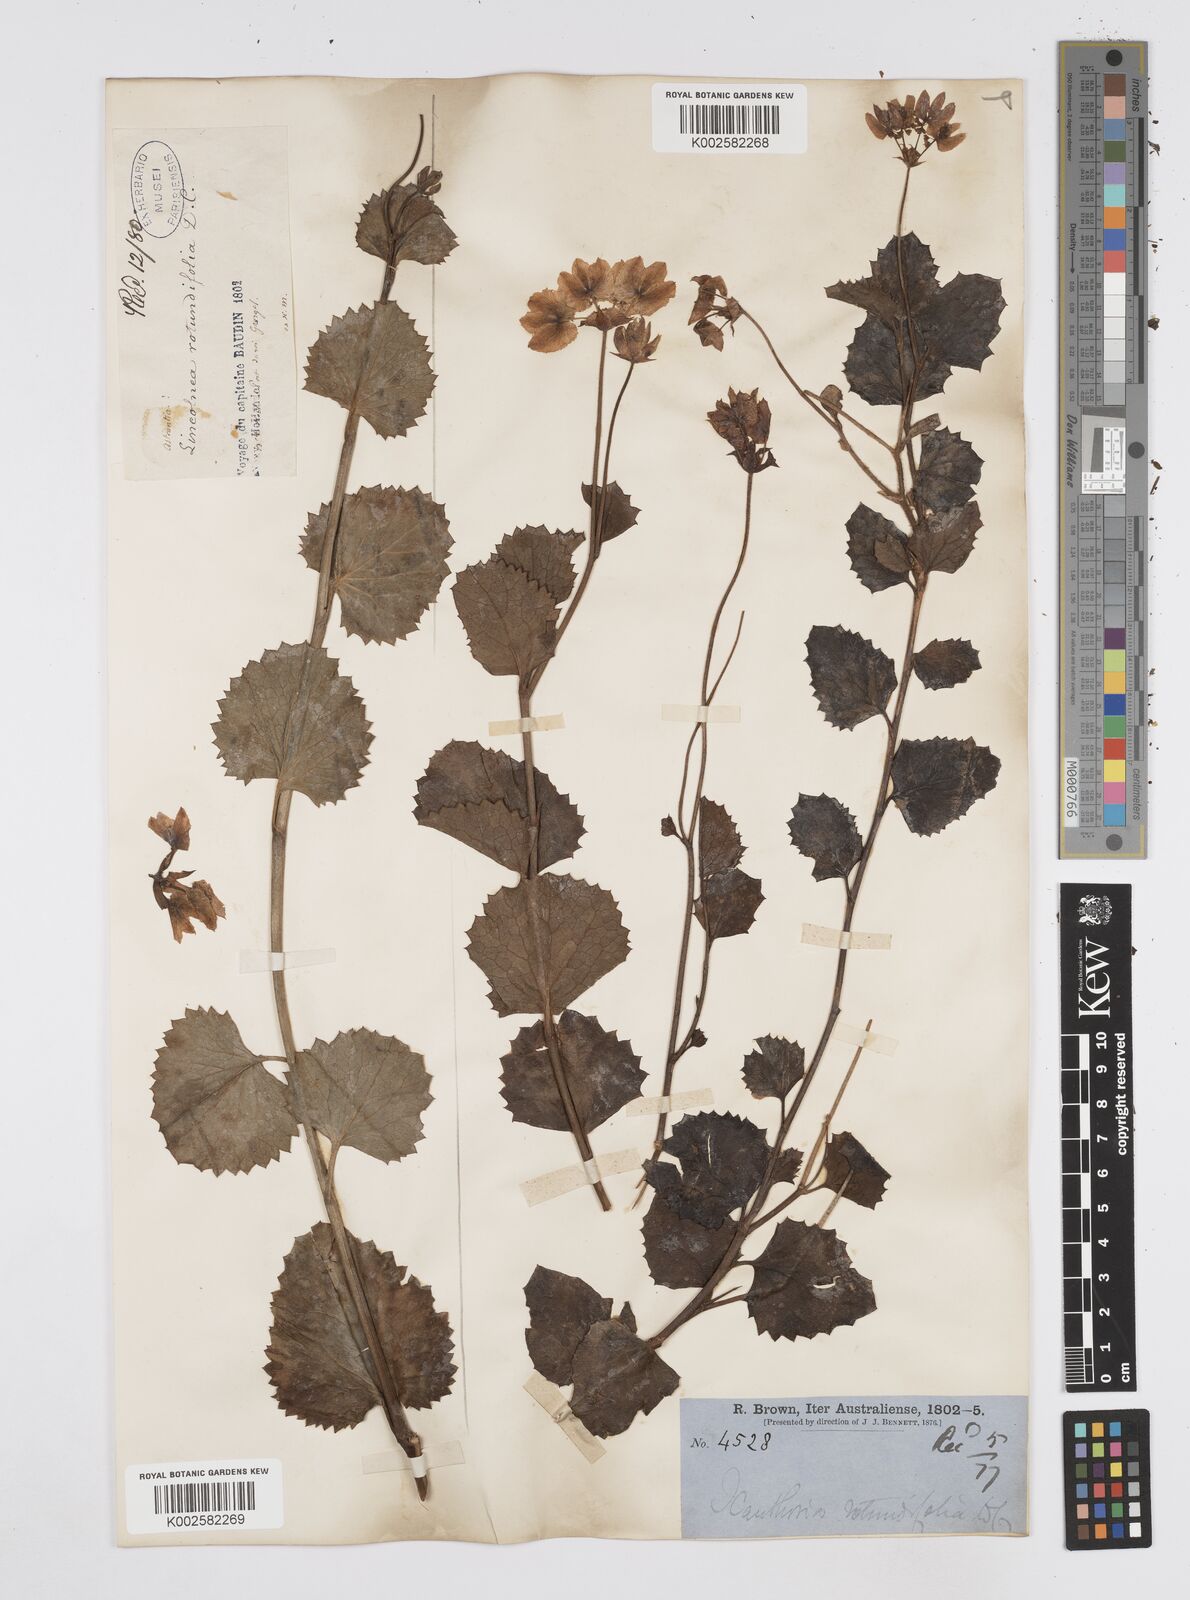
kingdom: Plantae
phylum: Tracheophyta
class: Magnoliopsida
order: Apiales
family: Apiaceae
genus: Xanthosia
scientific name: Xanthosia rotundifolia
